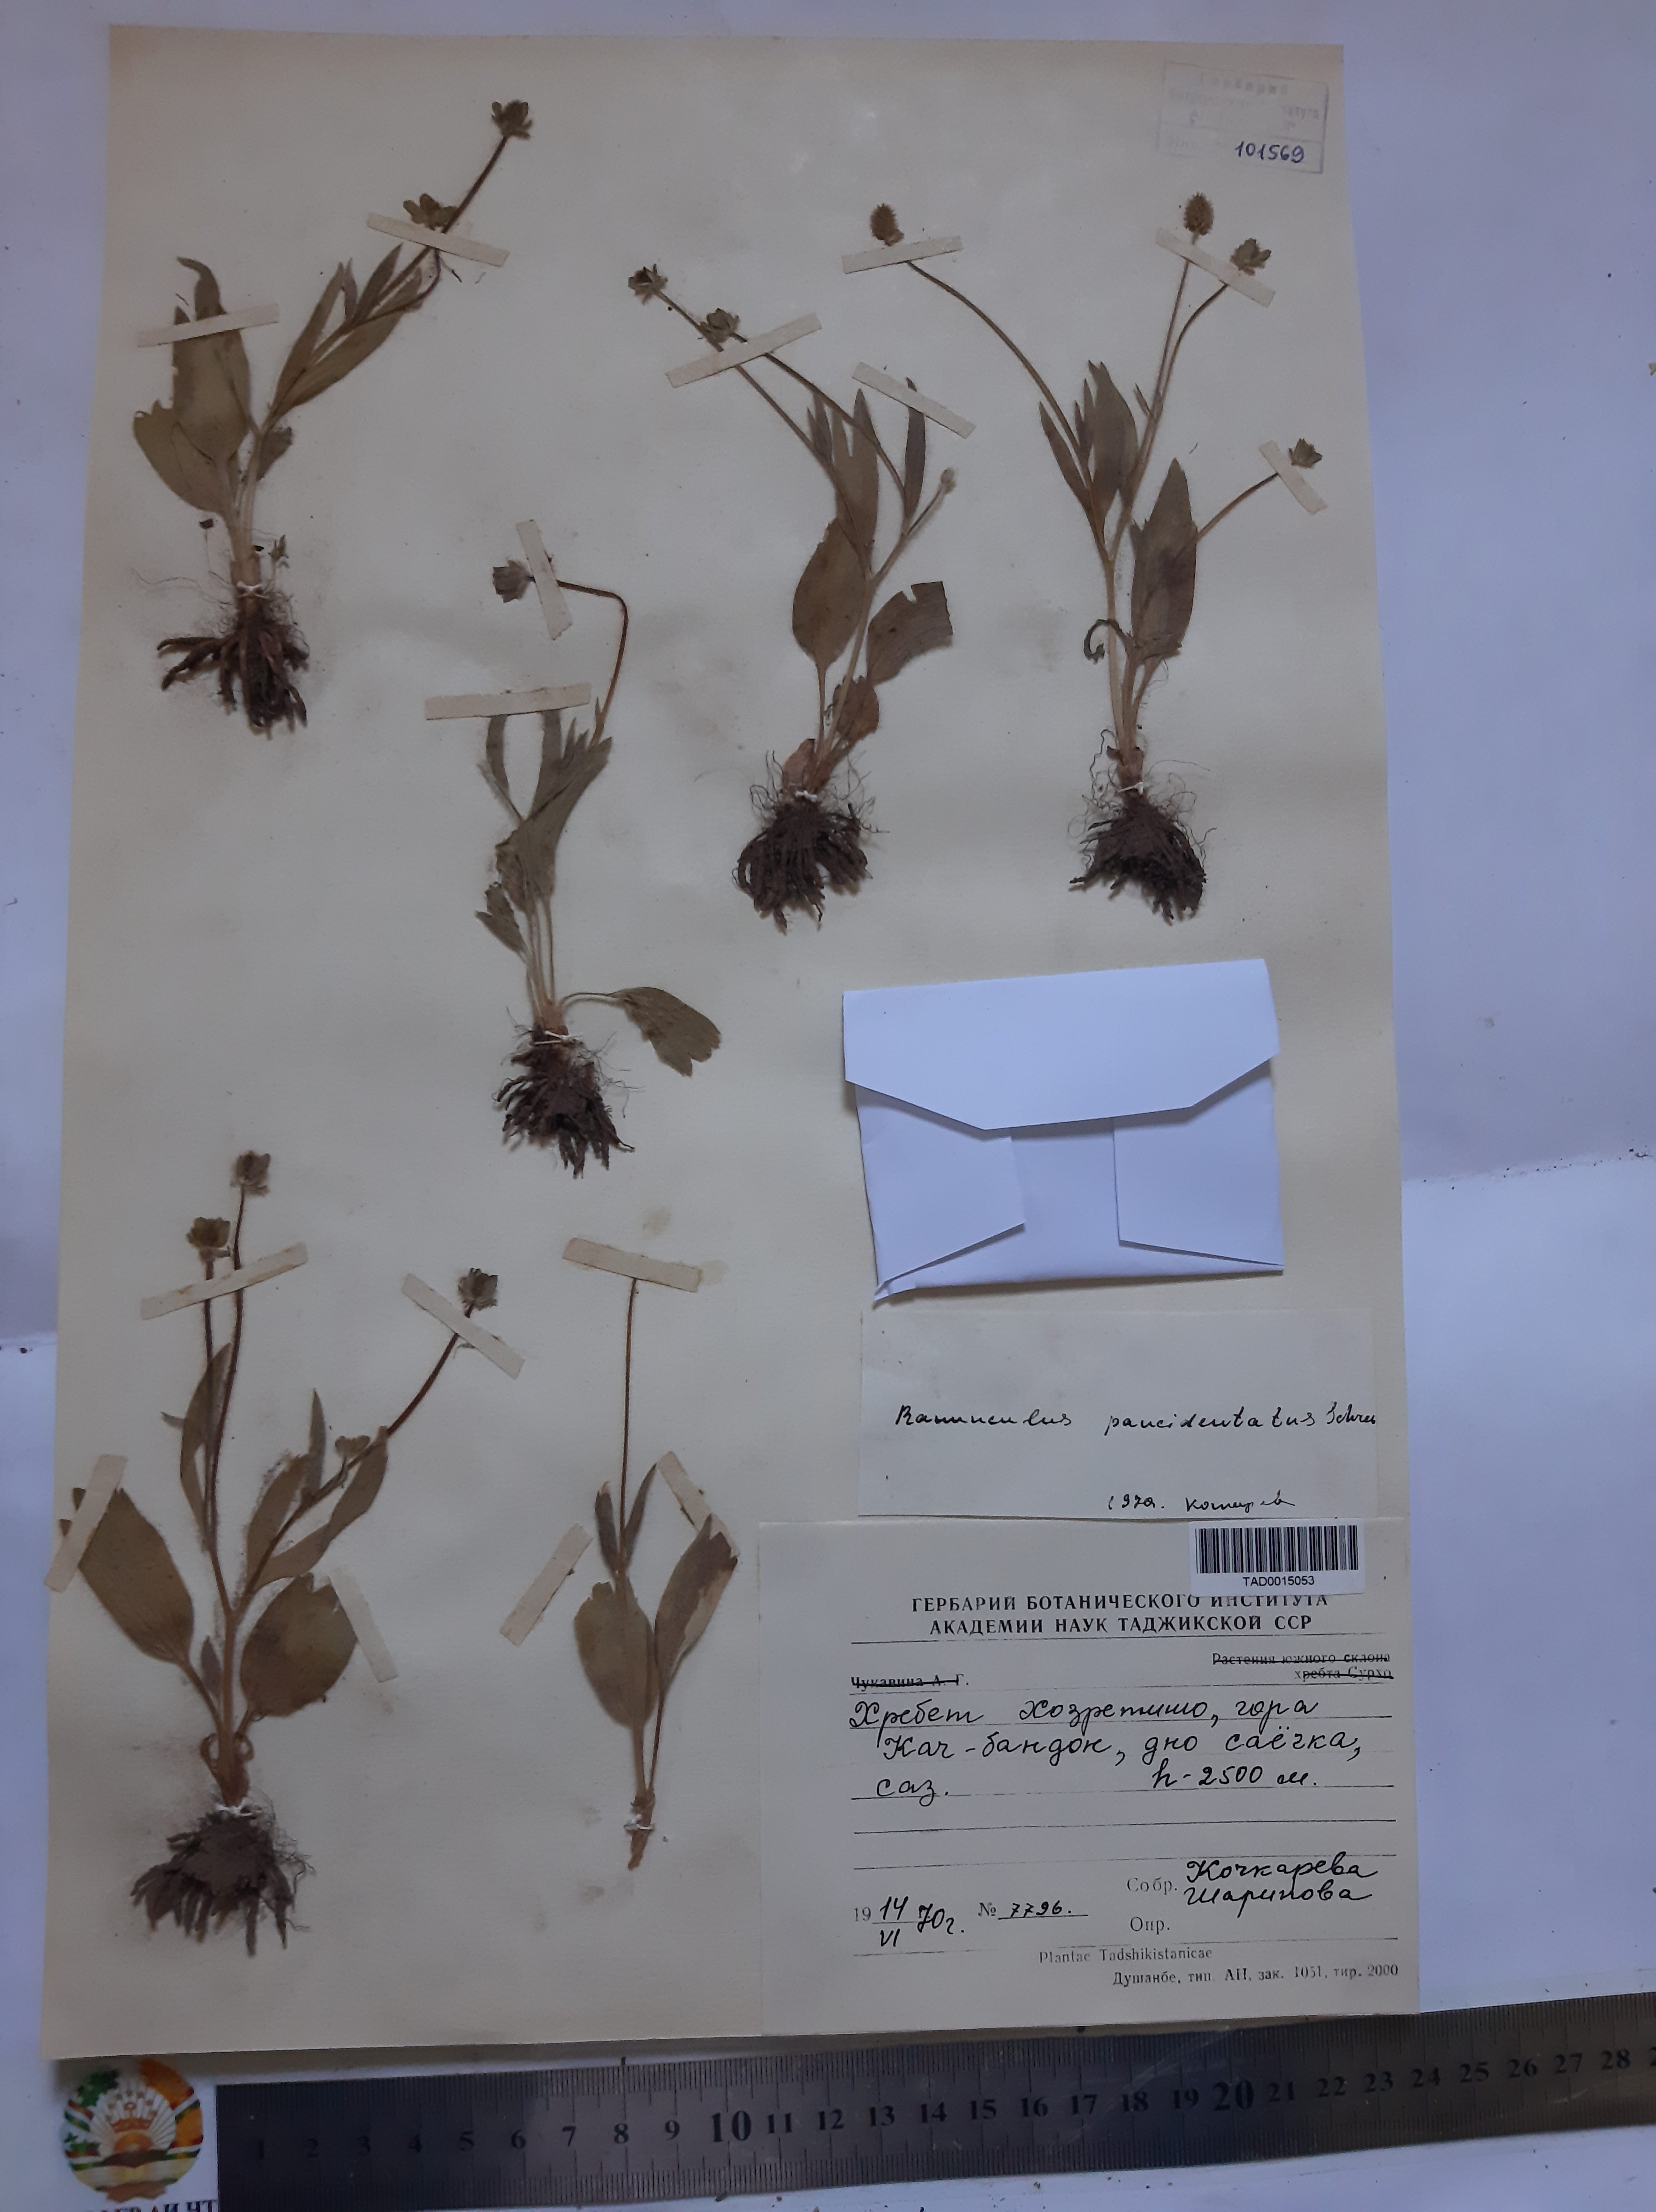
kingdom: Plantae
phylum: Tracheophyta
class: Magnoliopsida
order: Ranunculales
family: Ranunculaceae
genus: Ranunculus
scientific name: Ranunculus paucidentatus
